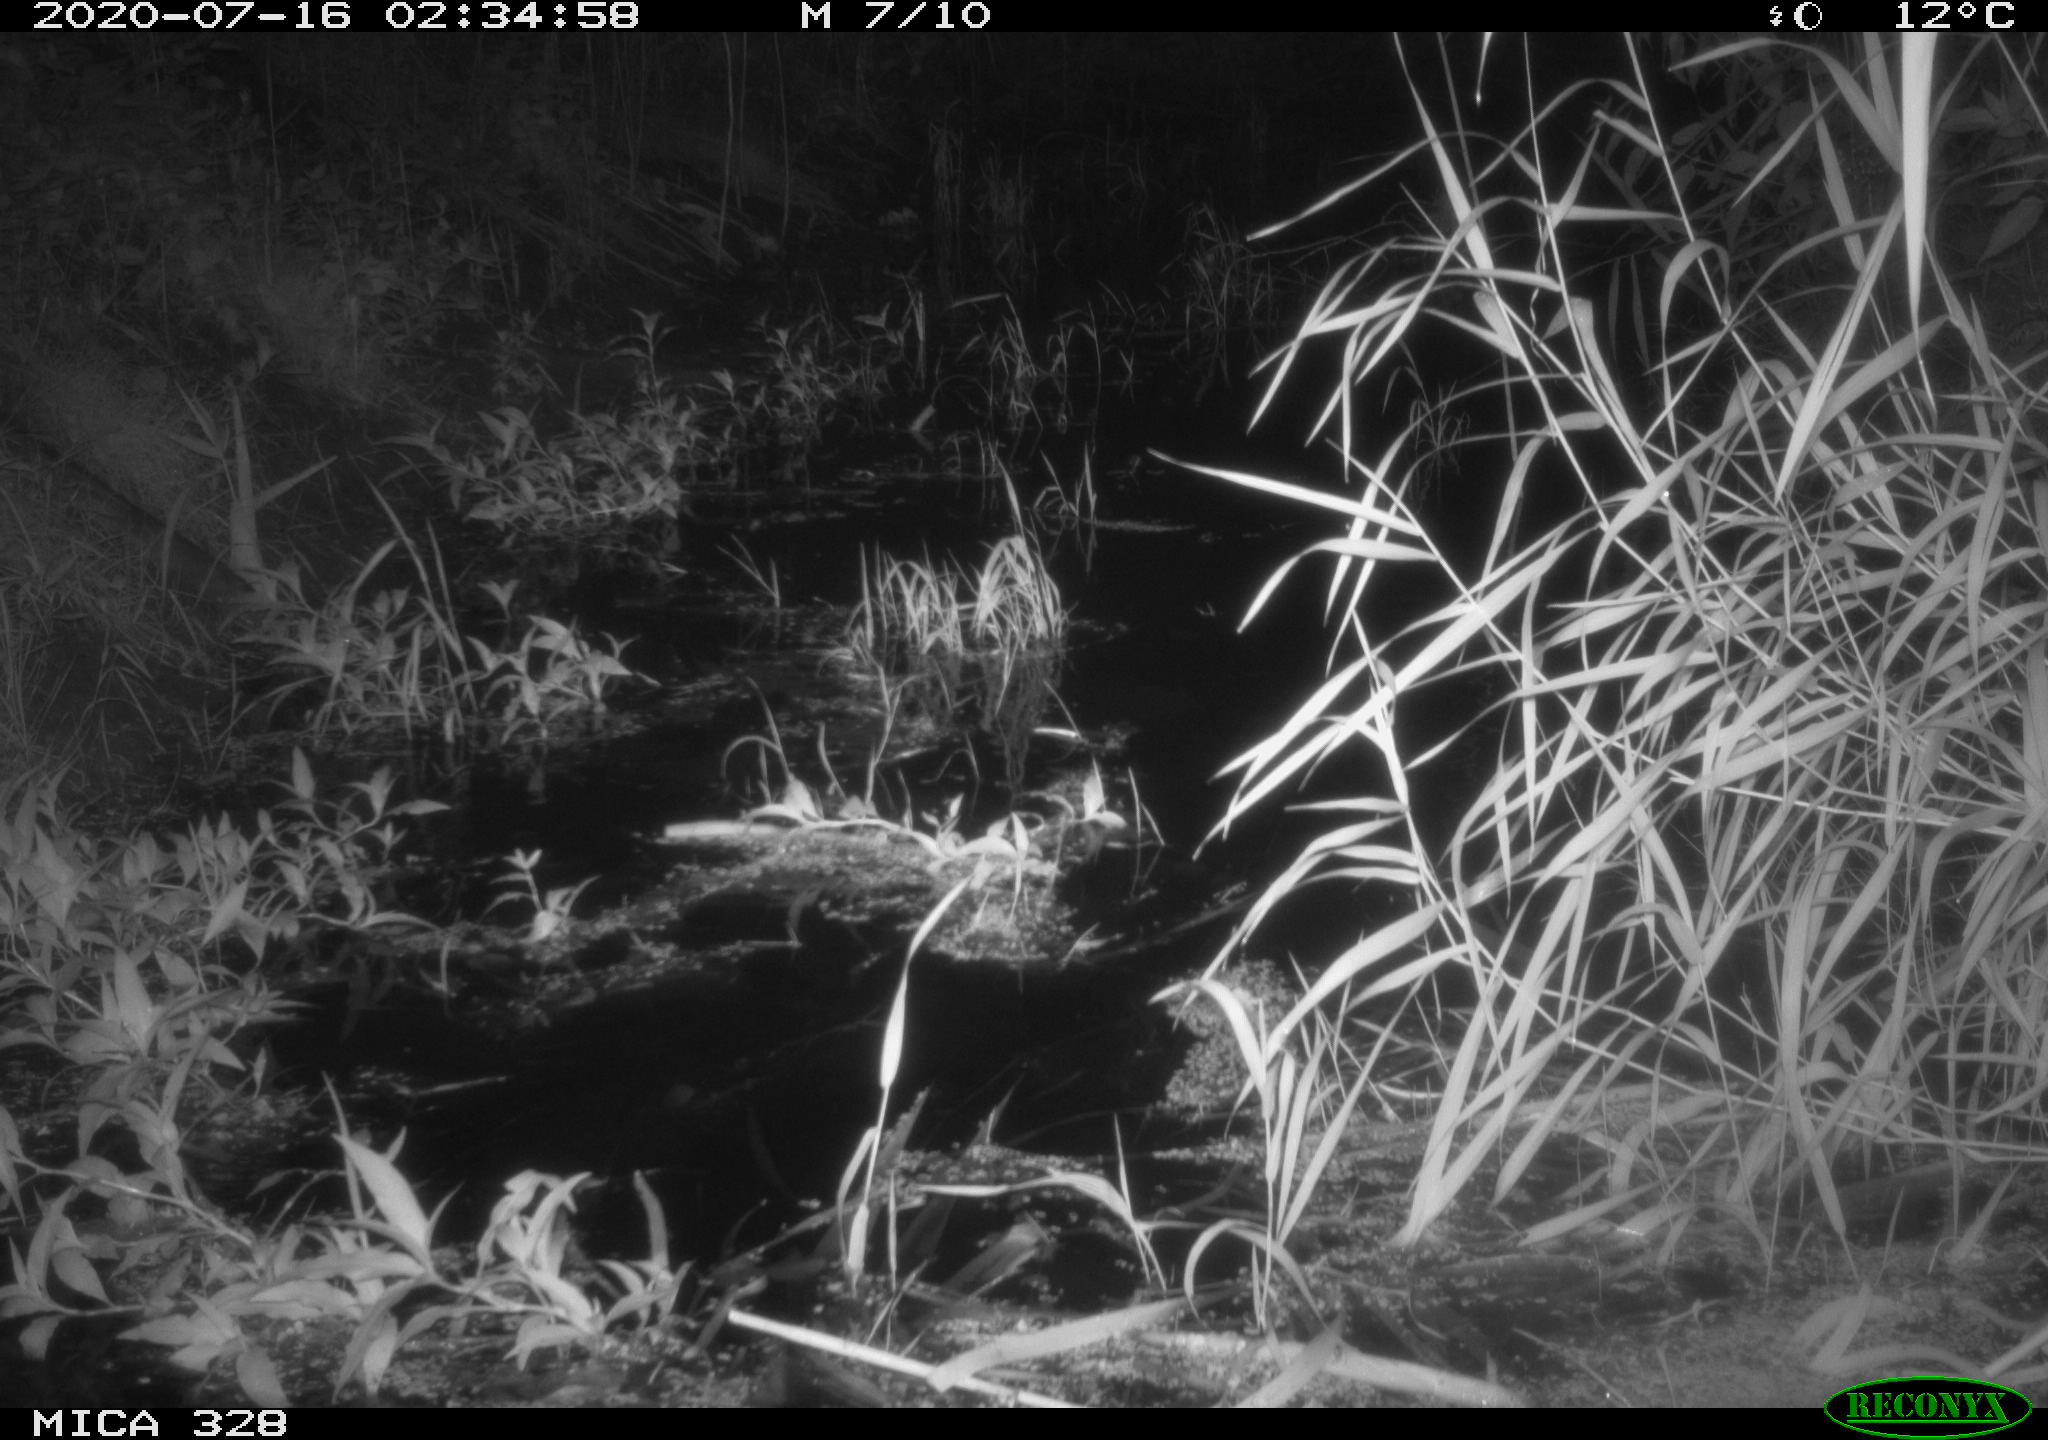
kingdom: Animalia
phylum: Chordata
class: Mammalia
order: Rodentia
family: Muridae
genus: Rattus
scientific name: Rattus norvegicus
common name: Brown rat
